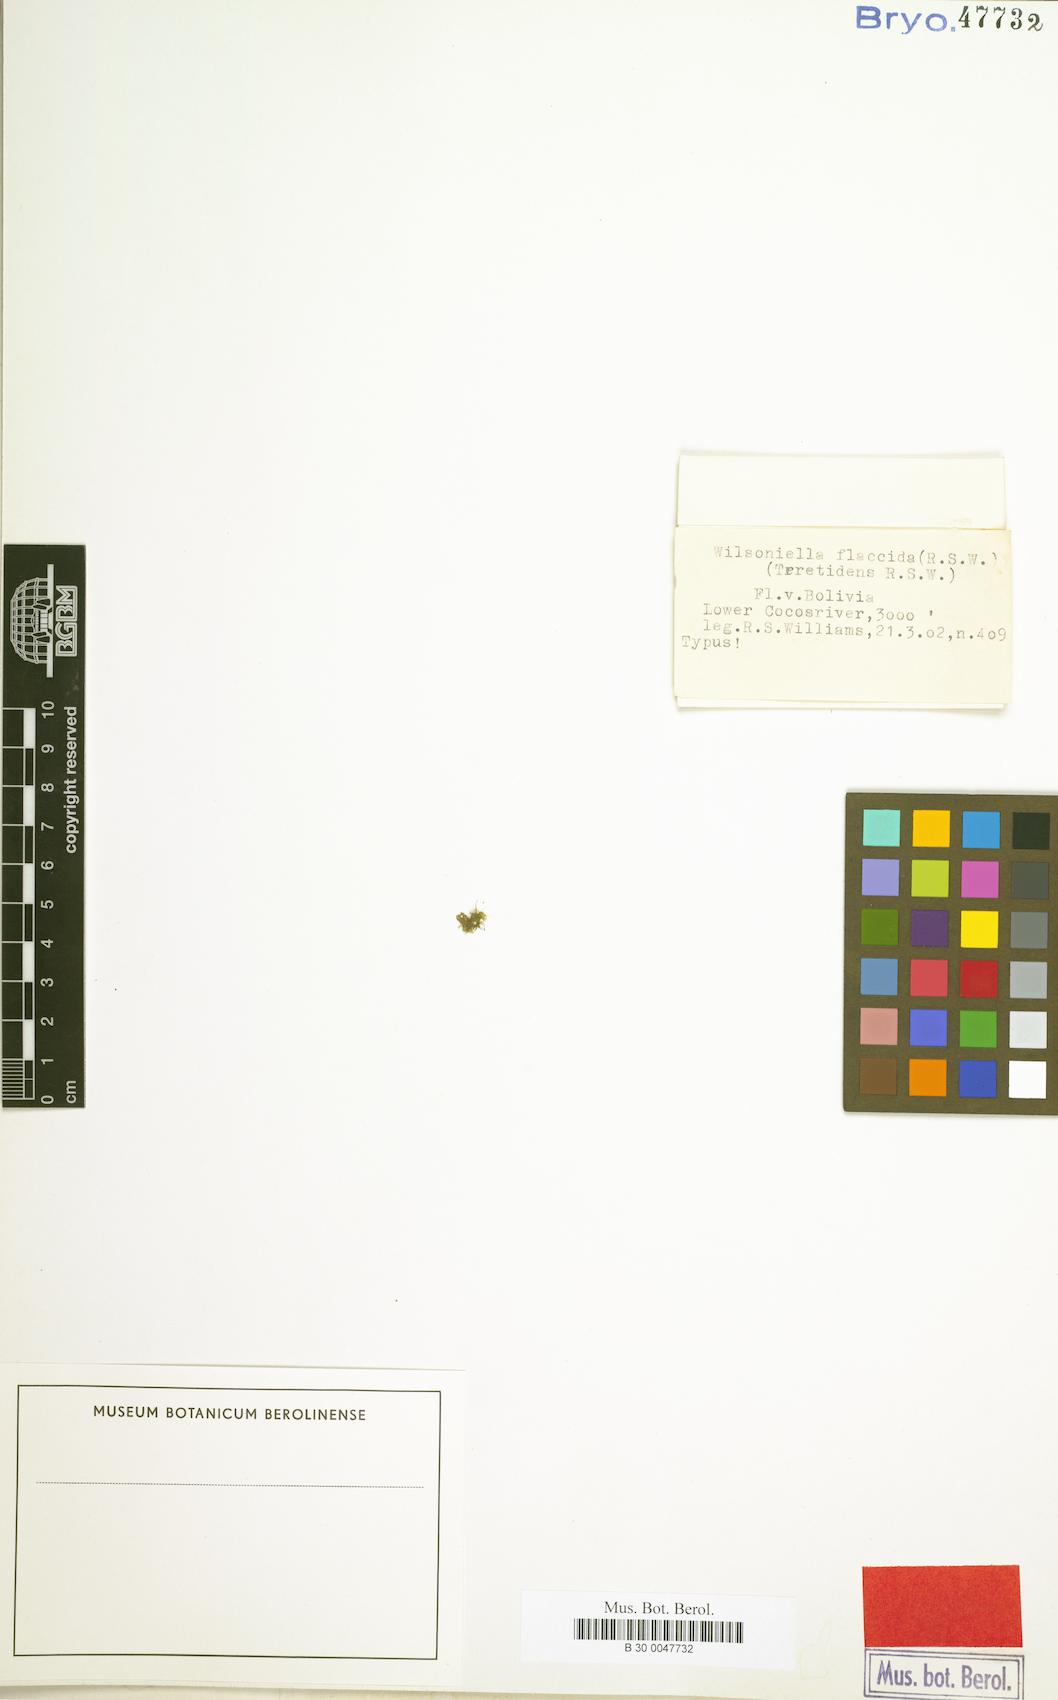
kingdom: Plantae
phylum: Bryophyta
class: Bryopsida
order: Dicranales
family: Ditrichaceae
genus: Wilsoniella
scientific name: Wilsoniella flaccida
